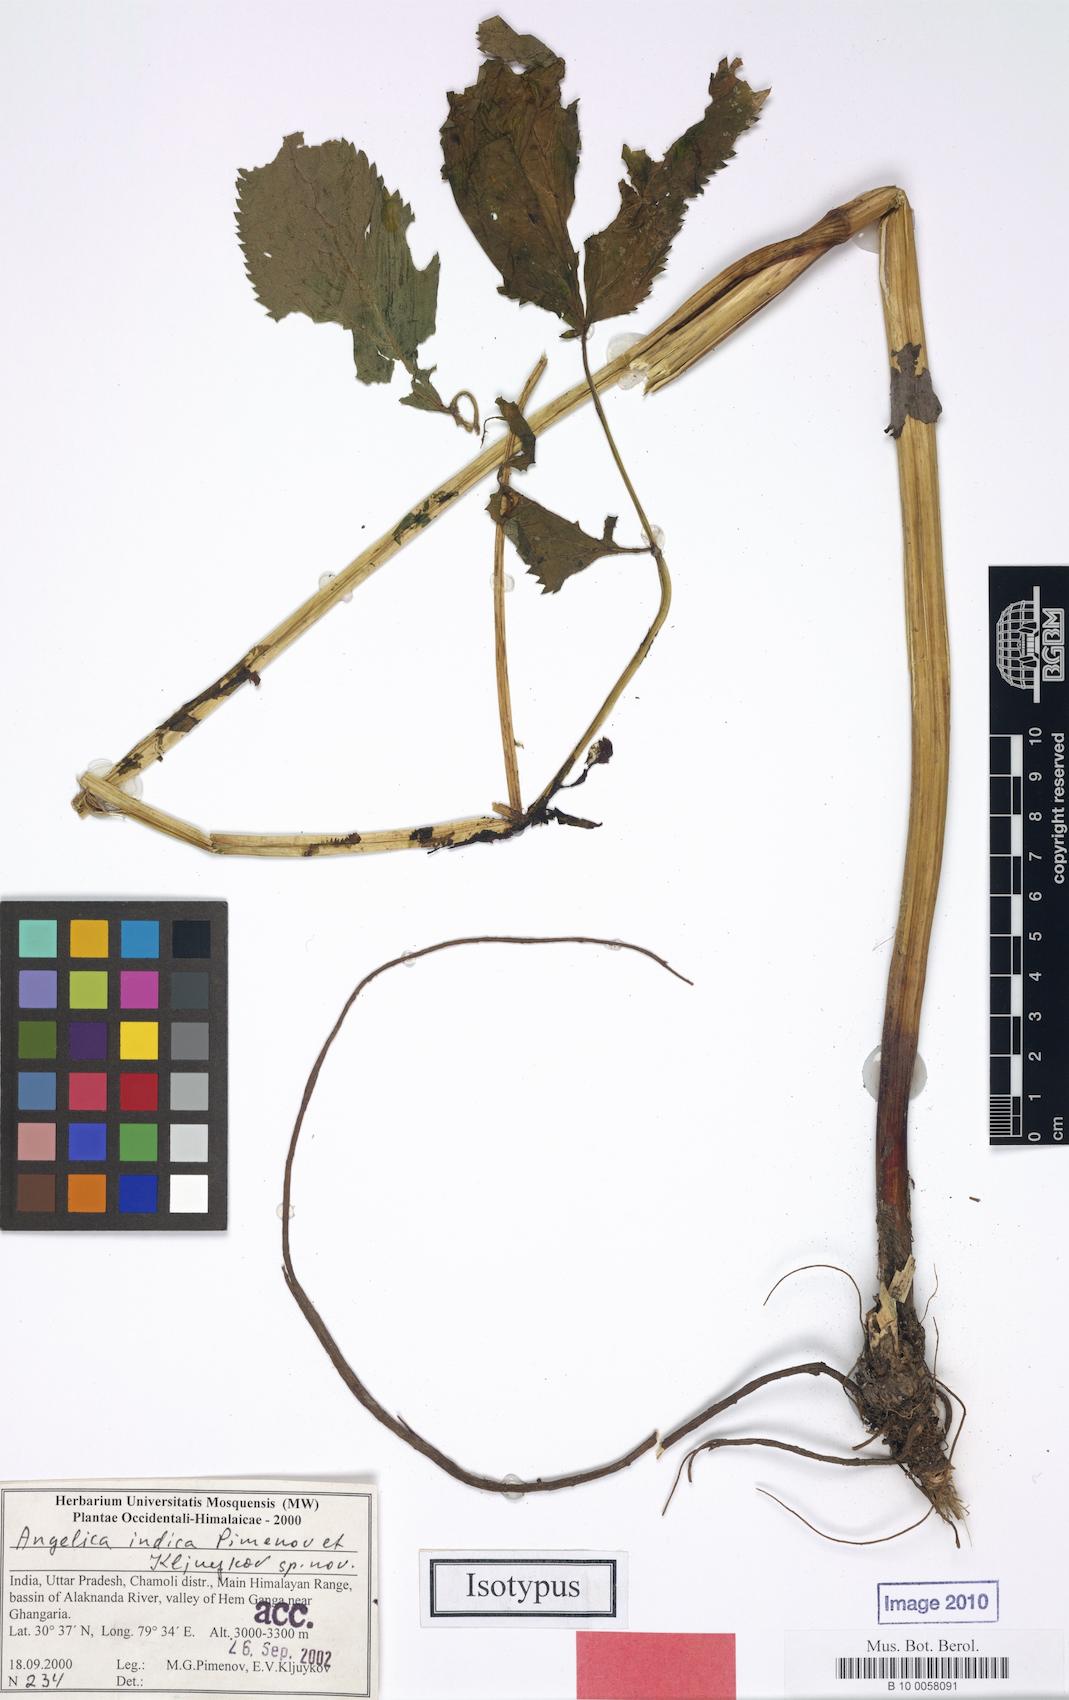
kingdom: Plantae
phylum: Tracheophyta
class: Magnoliopsida
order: Apiales
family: Apiaceae
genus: Angelica
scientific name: Angelica indica
